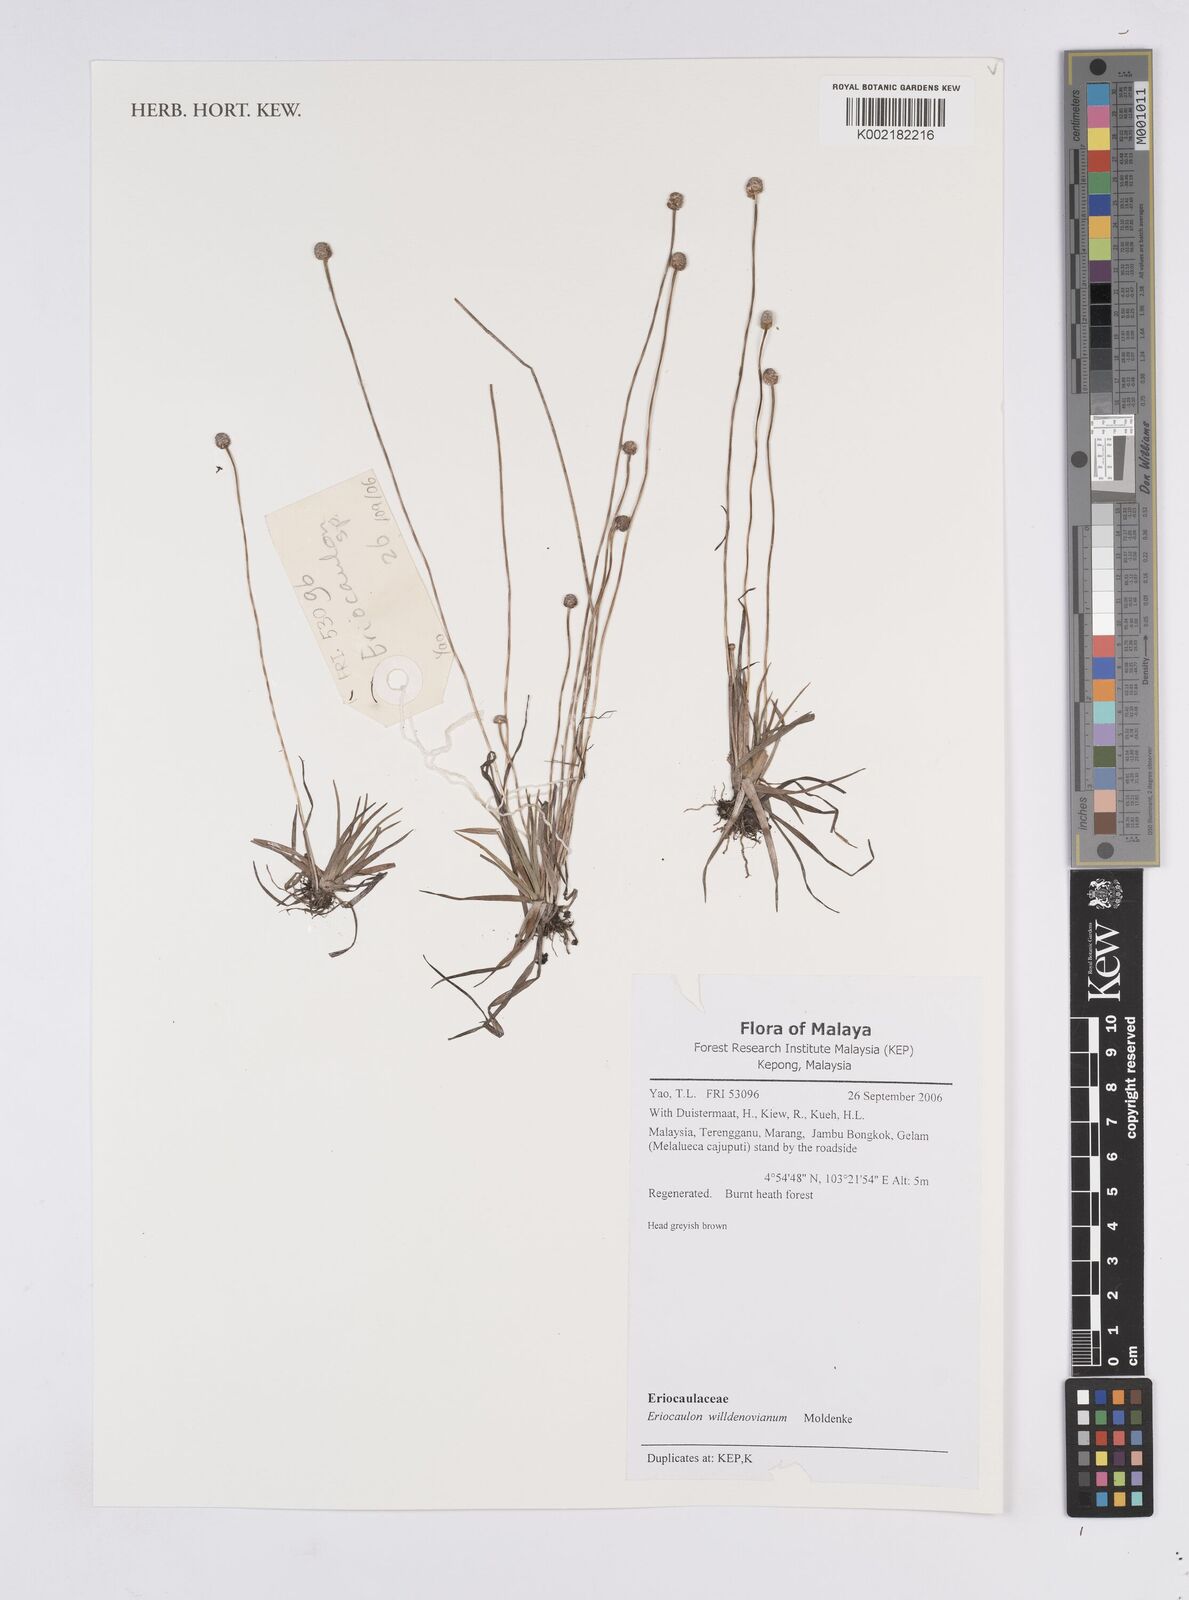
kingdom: Plantae
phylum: Tracheophyta
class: Liliopsida
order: Poales
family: Eriocaulaceae
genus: Eriocaulon
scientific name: Eriocaulon willdenovianum
